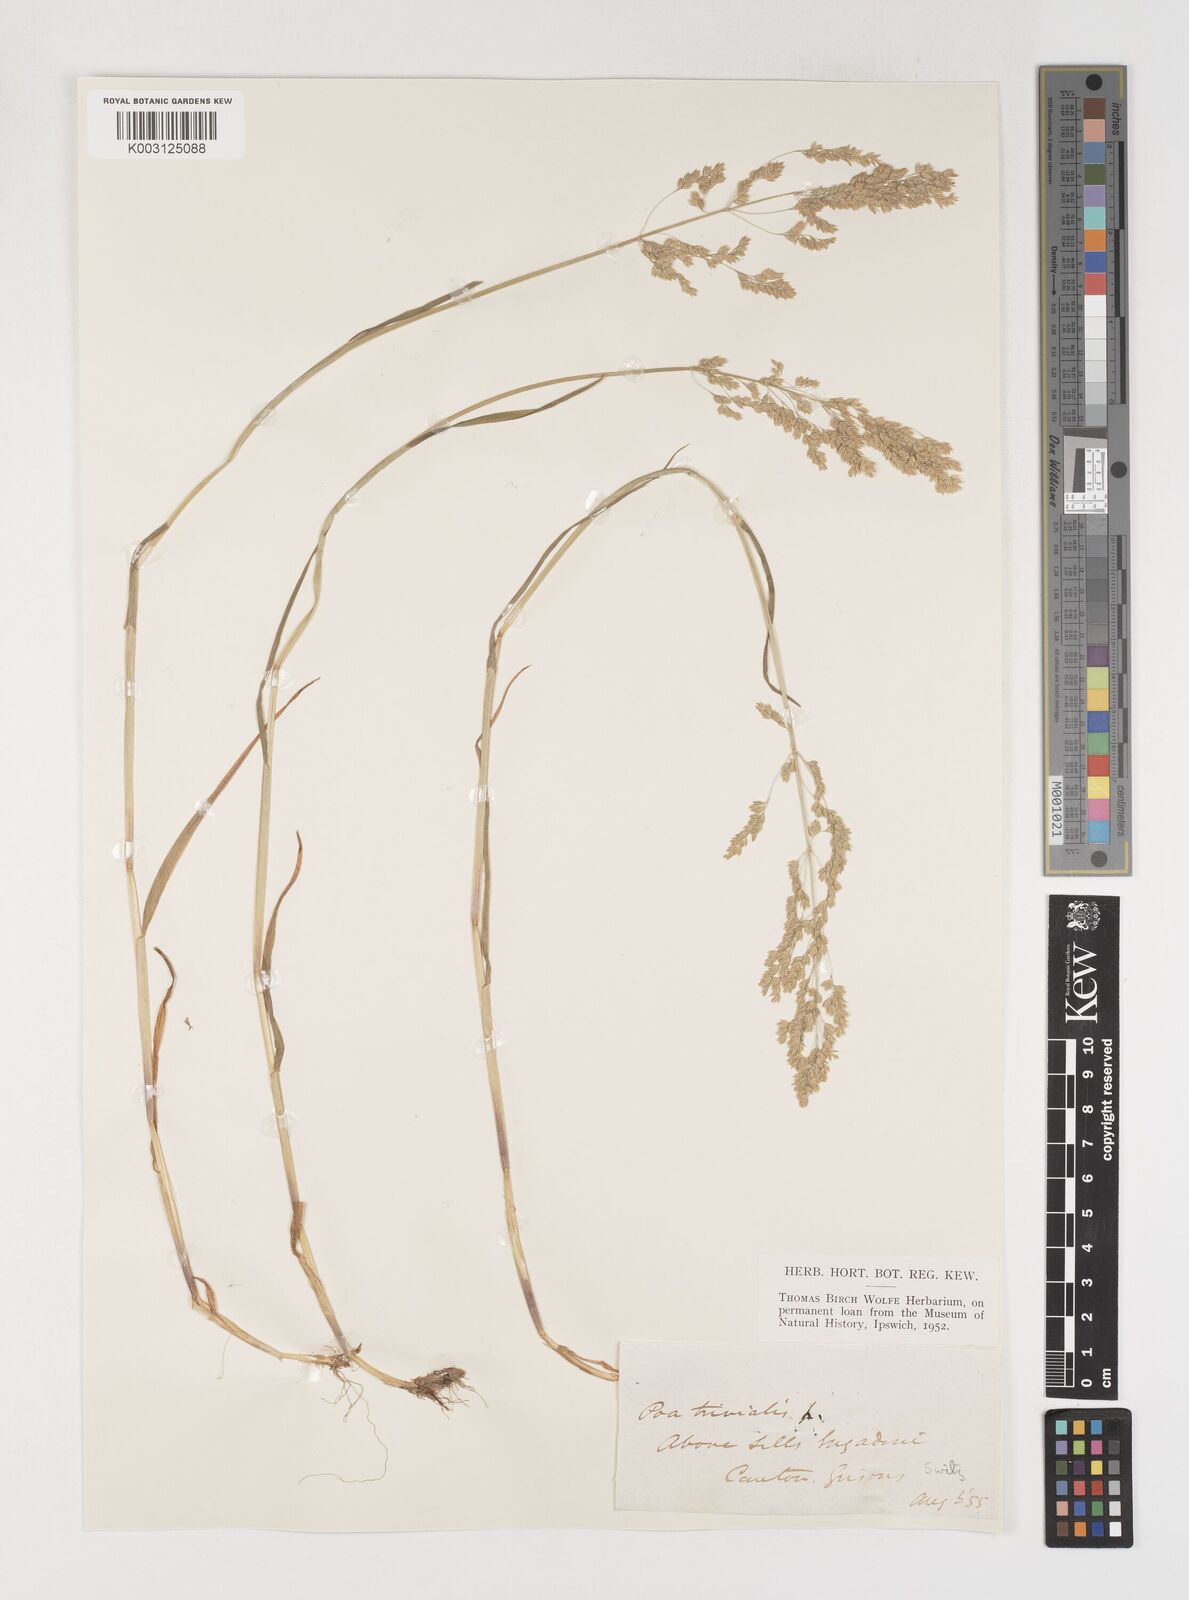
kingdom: Plantae
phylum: Tracheophyta
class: Liliopsida
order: Poales
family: Poaceae
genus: Poa
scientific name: Poa trivialis
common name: Rough bluegrass
